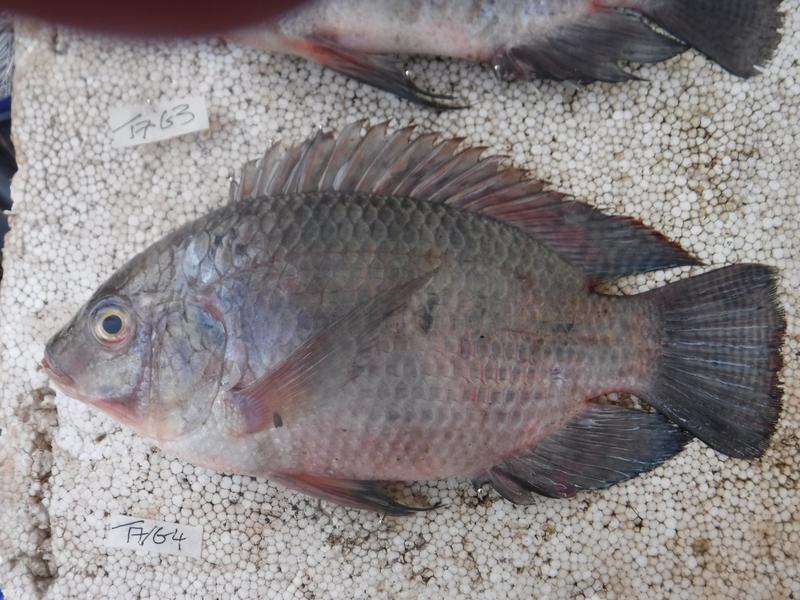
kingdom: Animalia
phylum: Chordata
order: Perciformes
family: Cichlidae
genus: Oreochromis
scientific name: Oreochromis urolepis
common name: Wami tilapia
